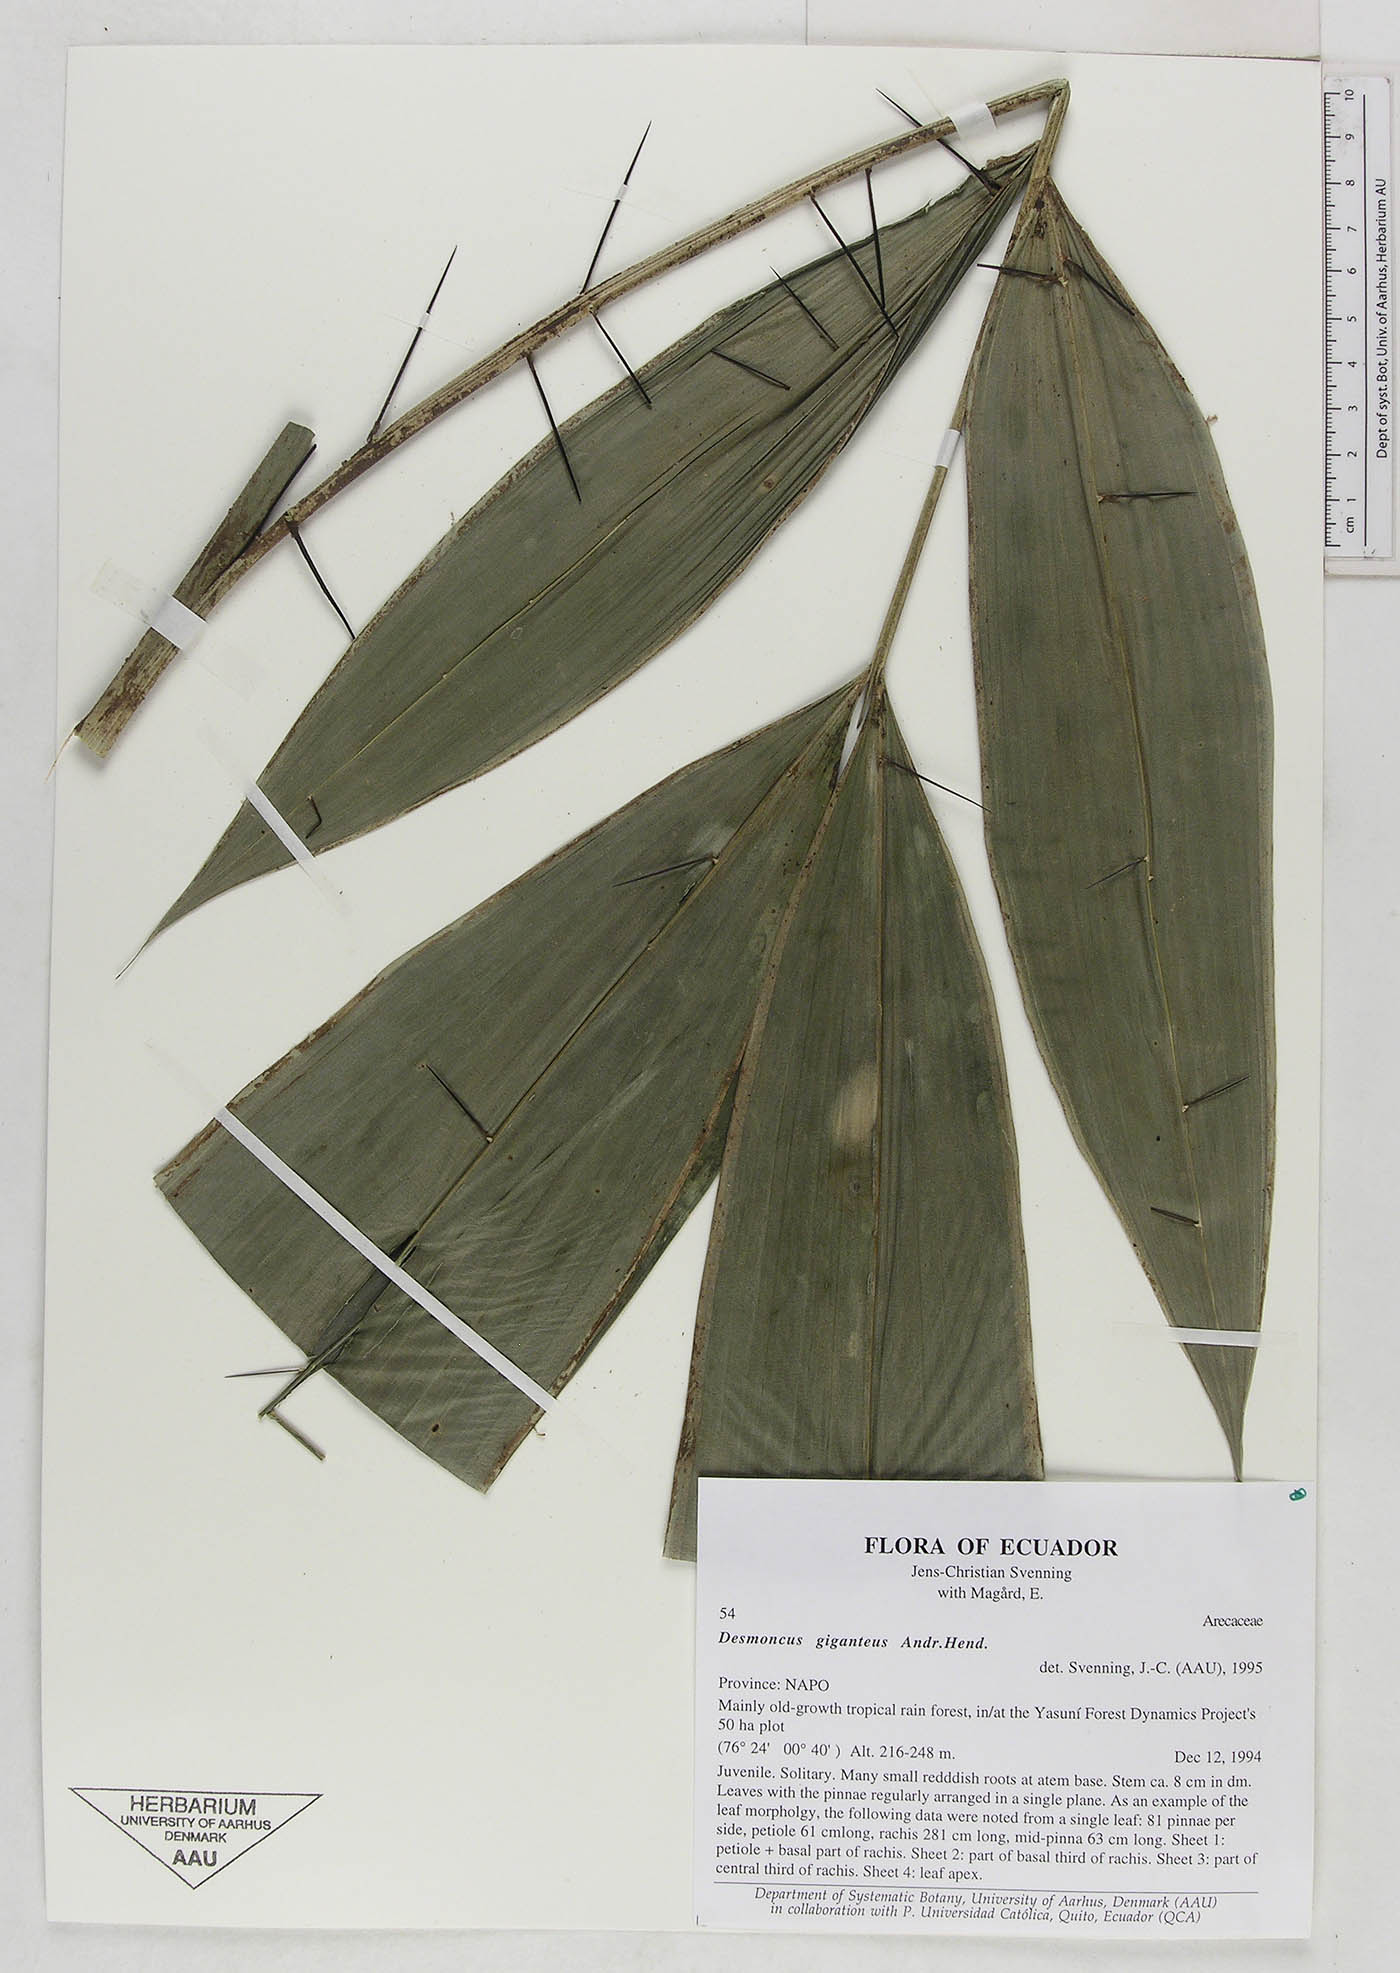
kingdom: Plantae
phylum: Tracheophyta
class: Liliopsida
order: Arecales
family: Arecaceae
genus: Desmoncus
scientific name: Desmoncus giganteus
